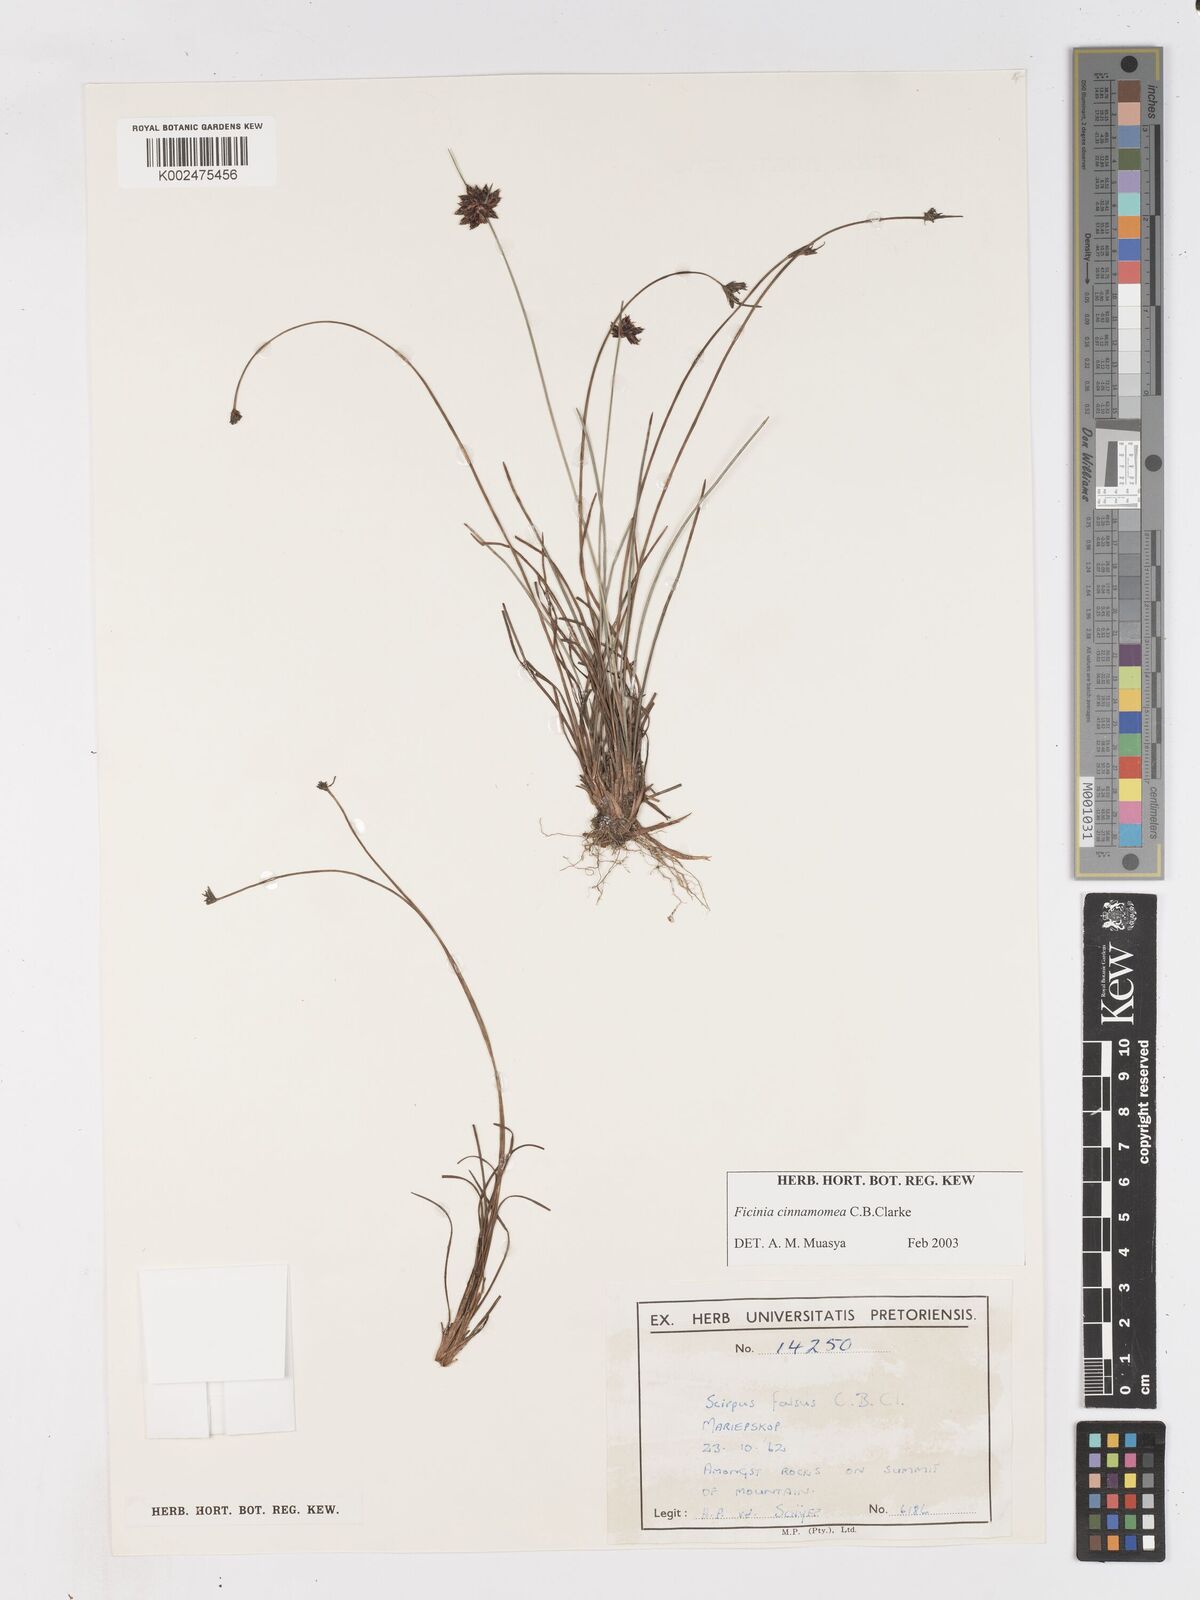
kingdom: Plantae
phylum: Tracheophyta
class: Liliopsida
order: Poales
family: Cyperaceae
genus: Ficinia
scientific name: Ficinia gracilis
